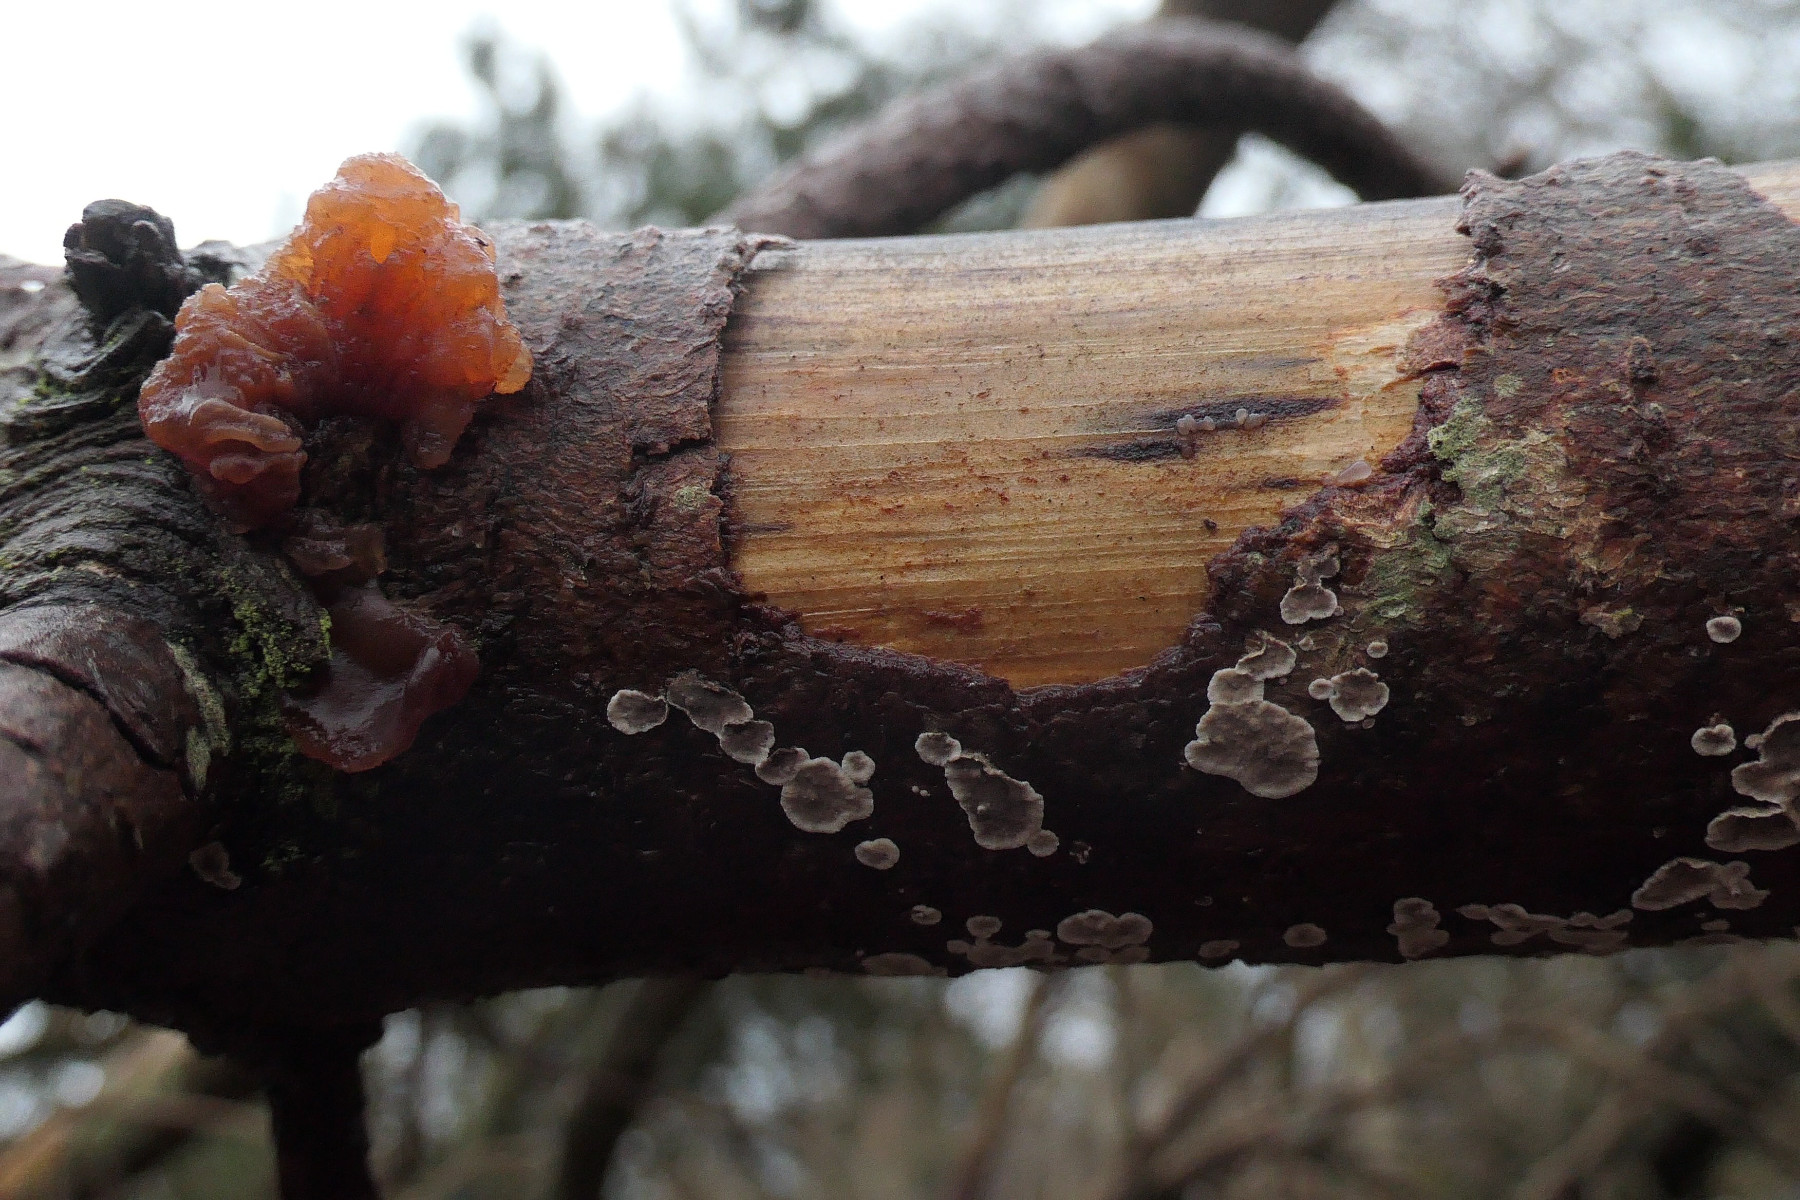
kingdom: Fungi
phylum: Basidiomycota
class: Tremellomycetes
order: Tremellales
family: Naemateliaceae
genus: Naematelia
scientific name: Naematelia encephala
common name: fyrre-bævresvamp
